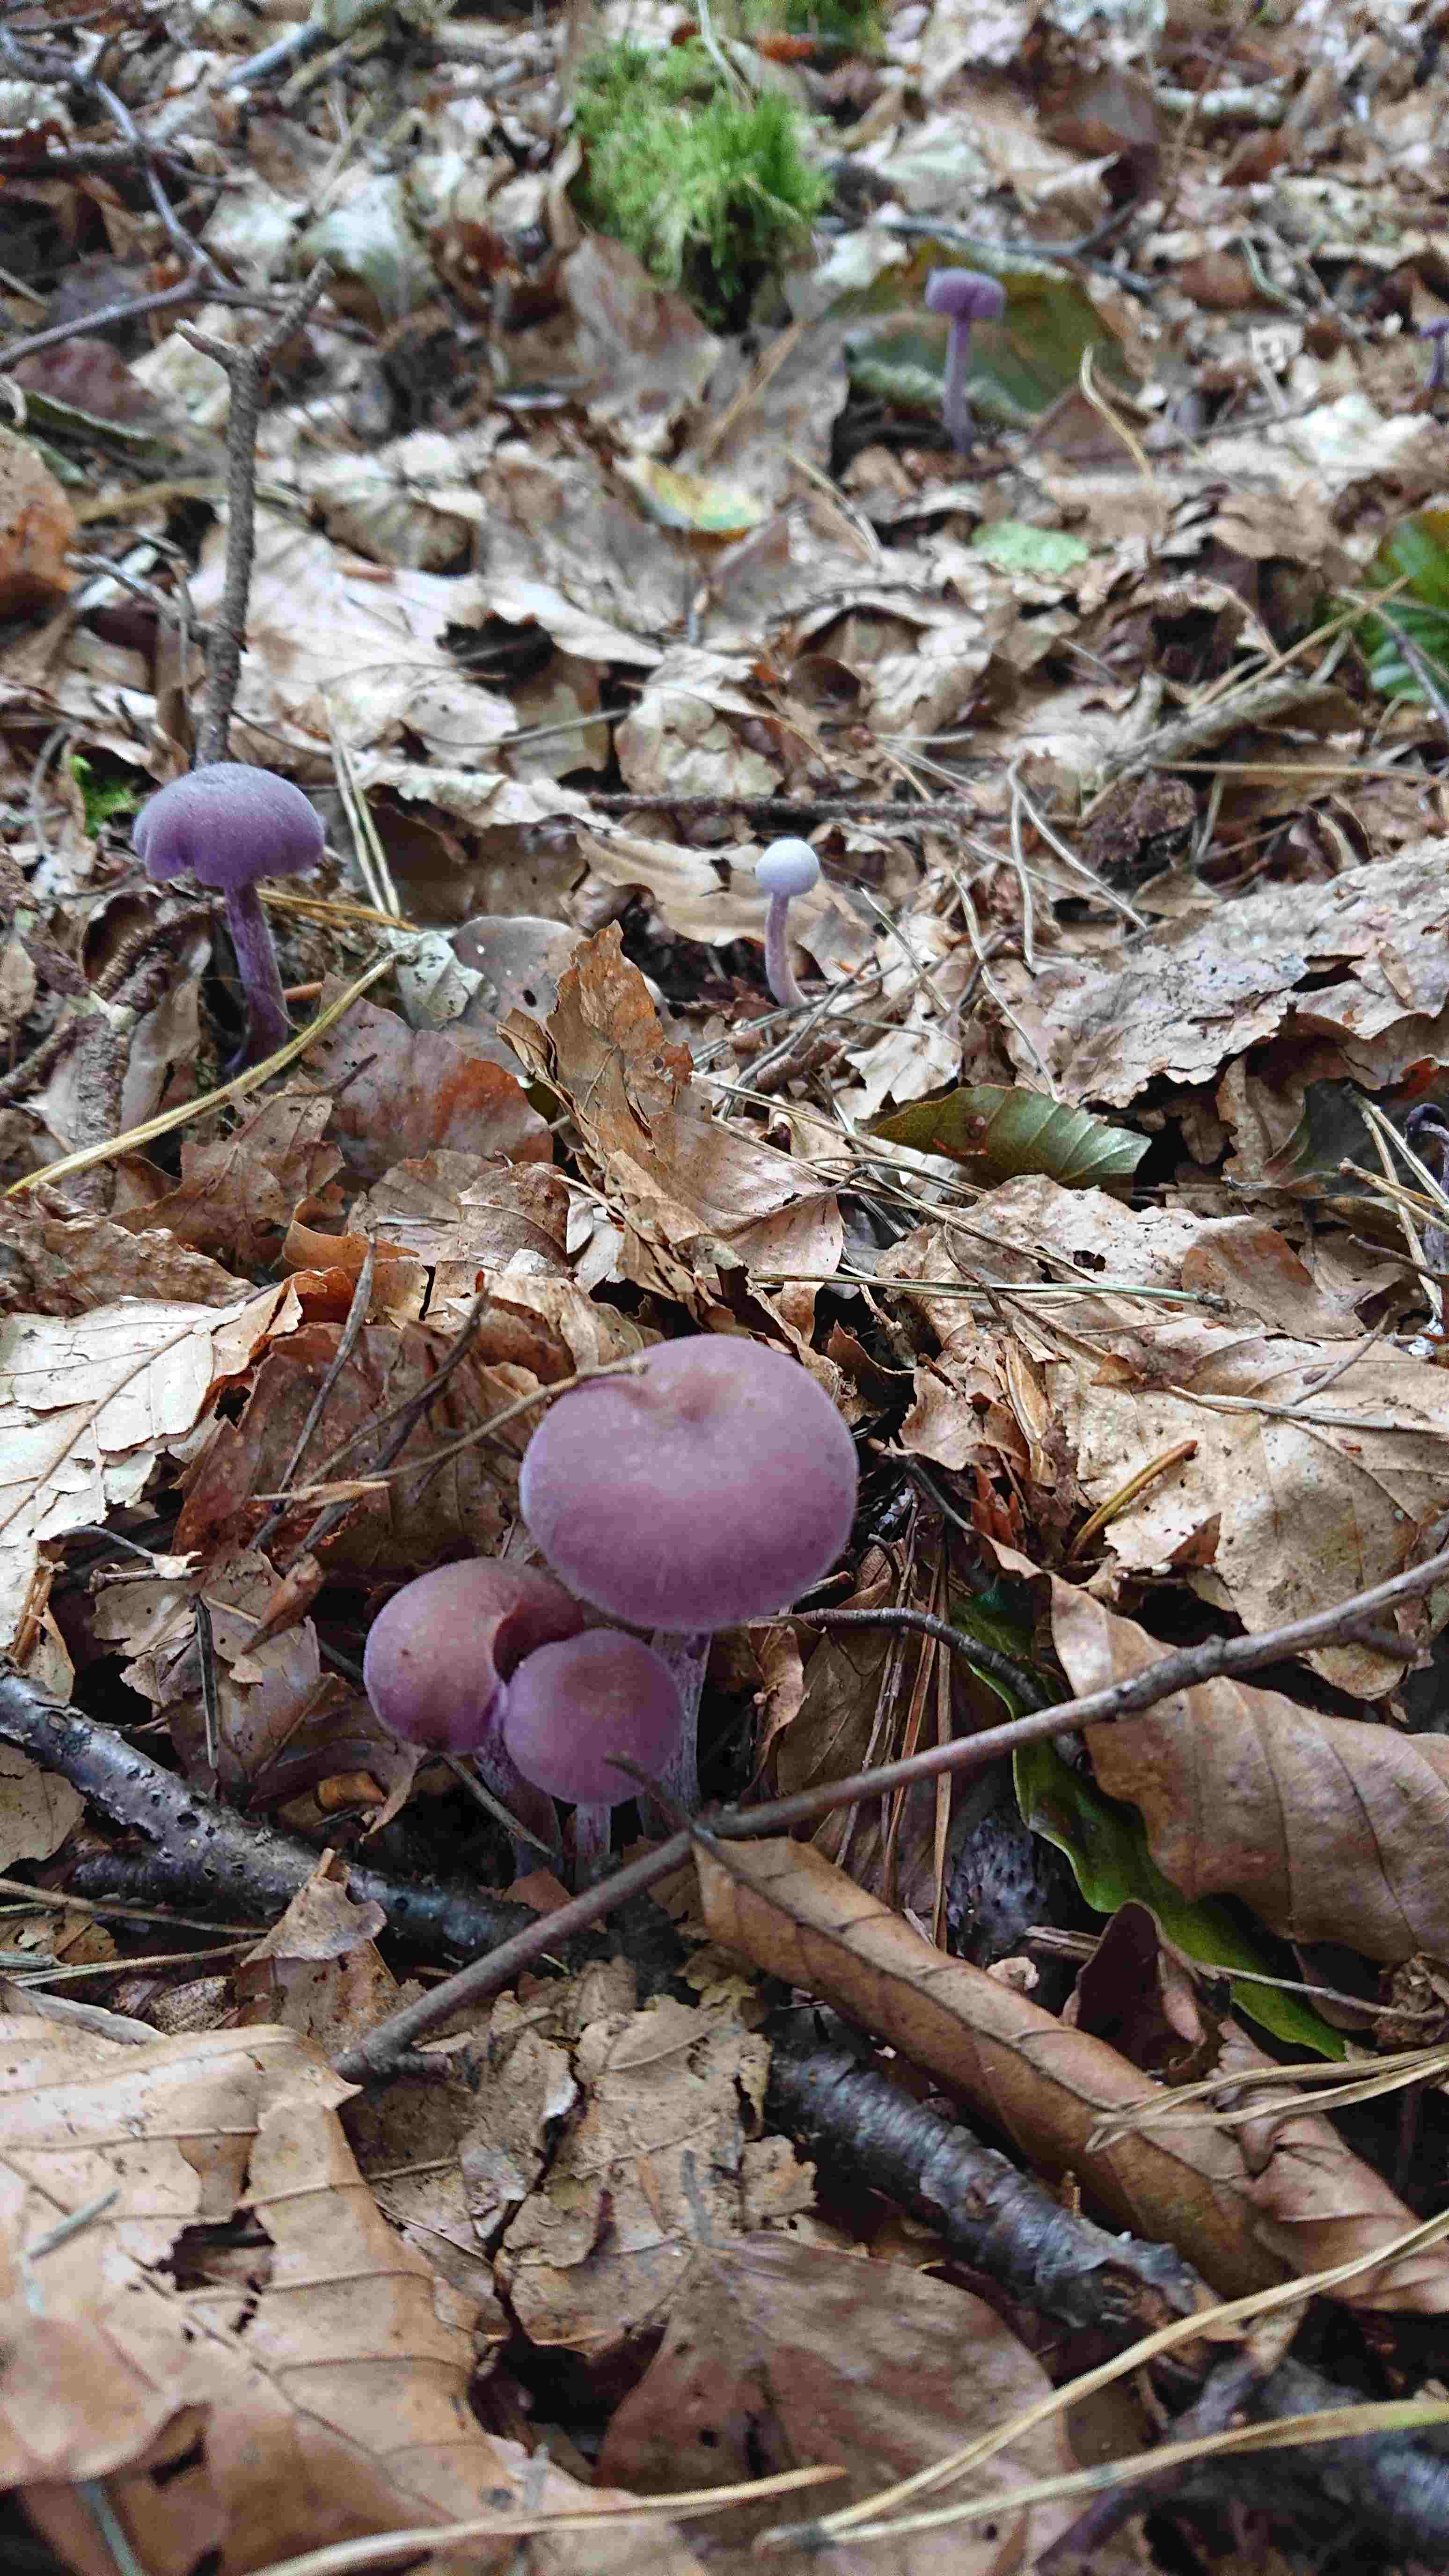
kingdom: Fungi
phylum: Basidiomycota
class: Agaricomycetes
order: Agaricales
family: Hydnangiaceae
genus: Laccaria
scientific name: Laccaria amethystina
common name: violet ametysthat
